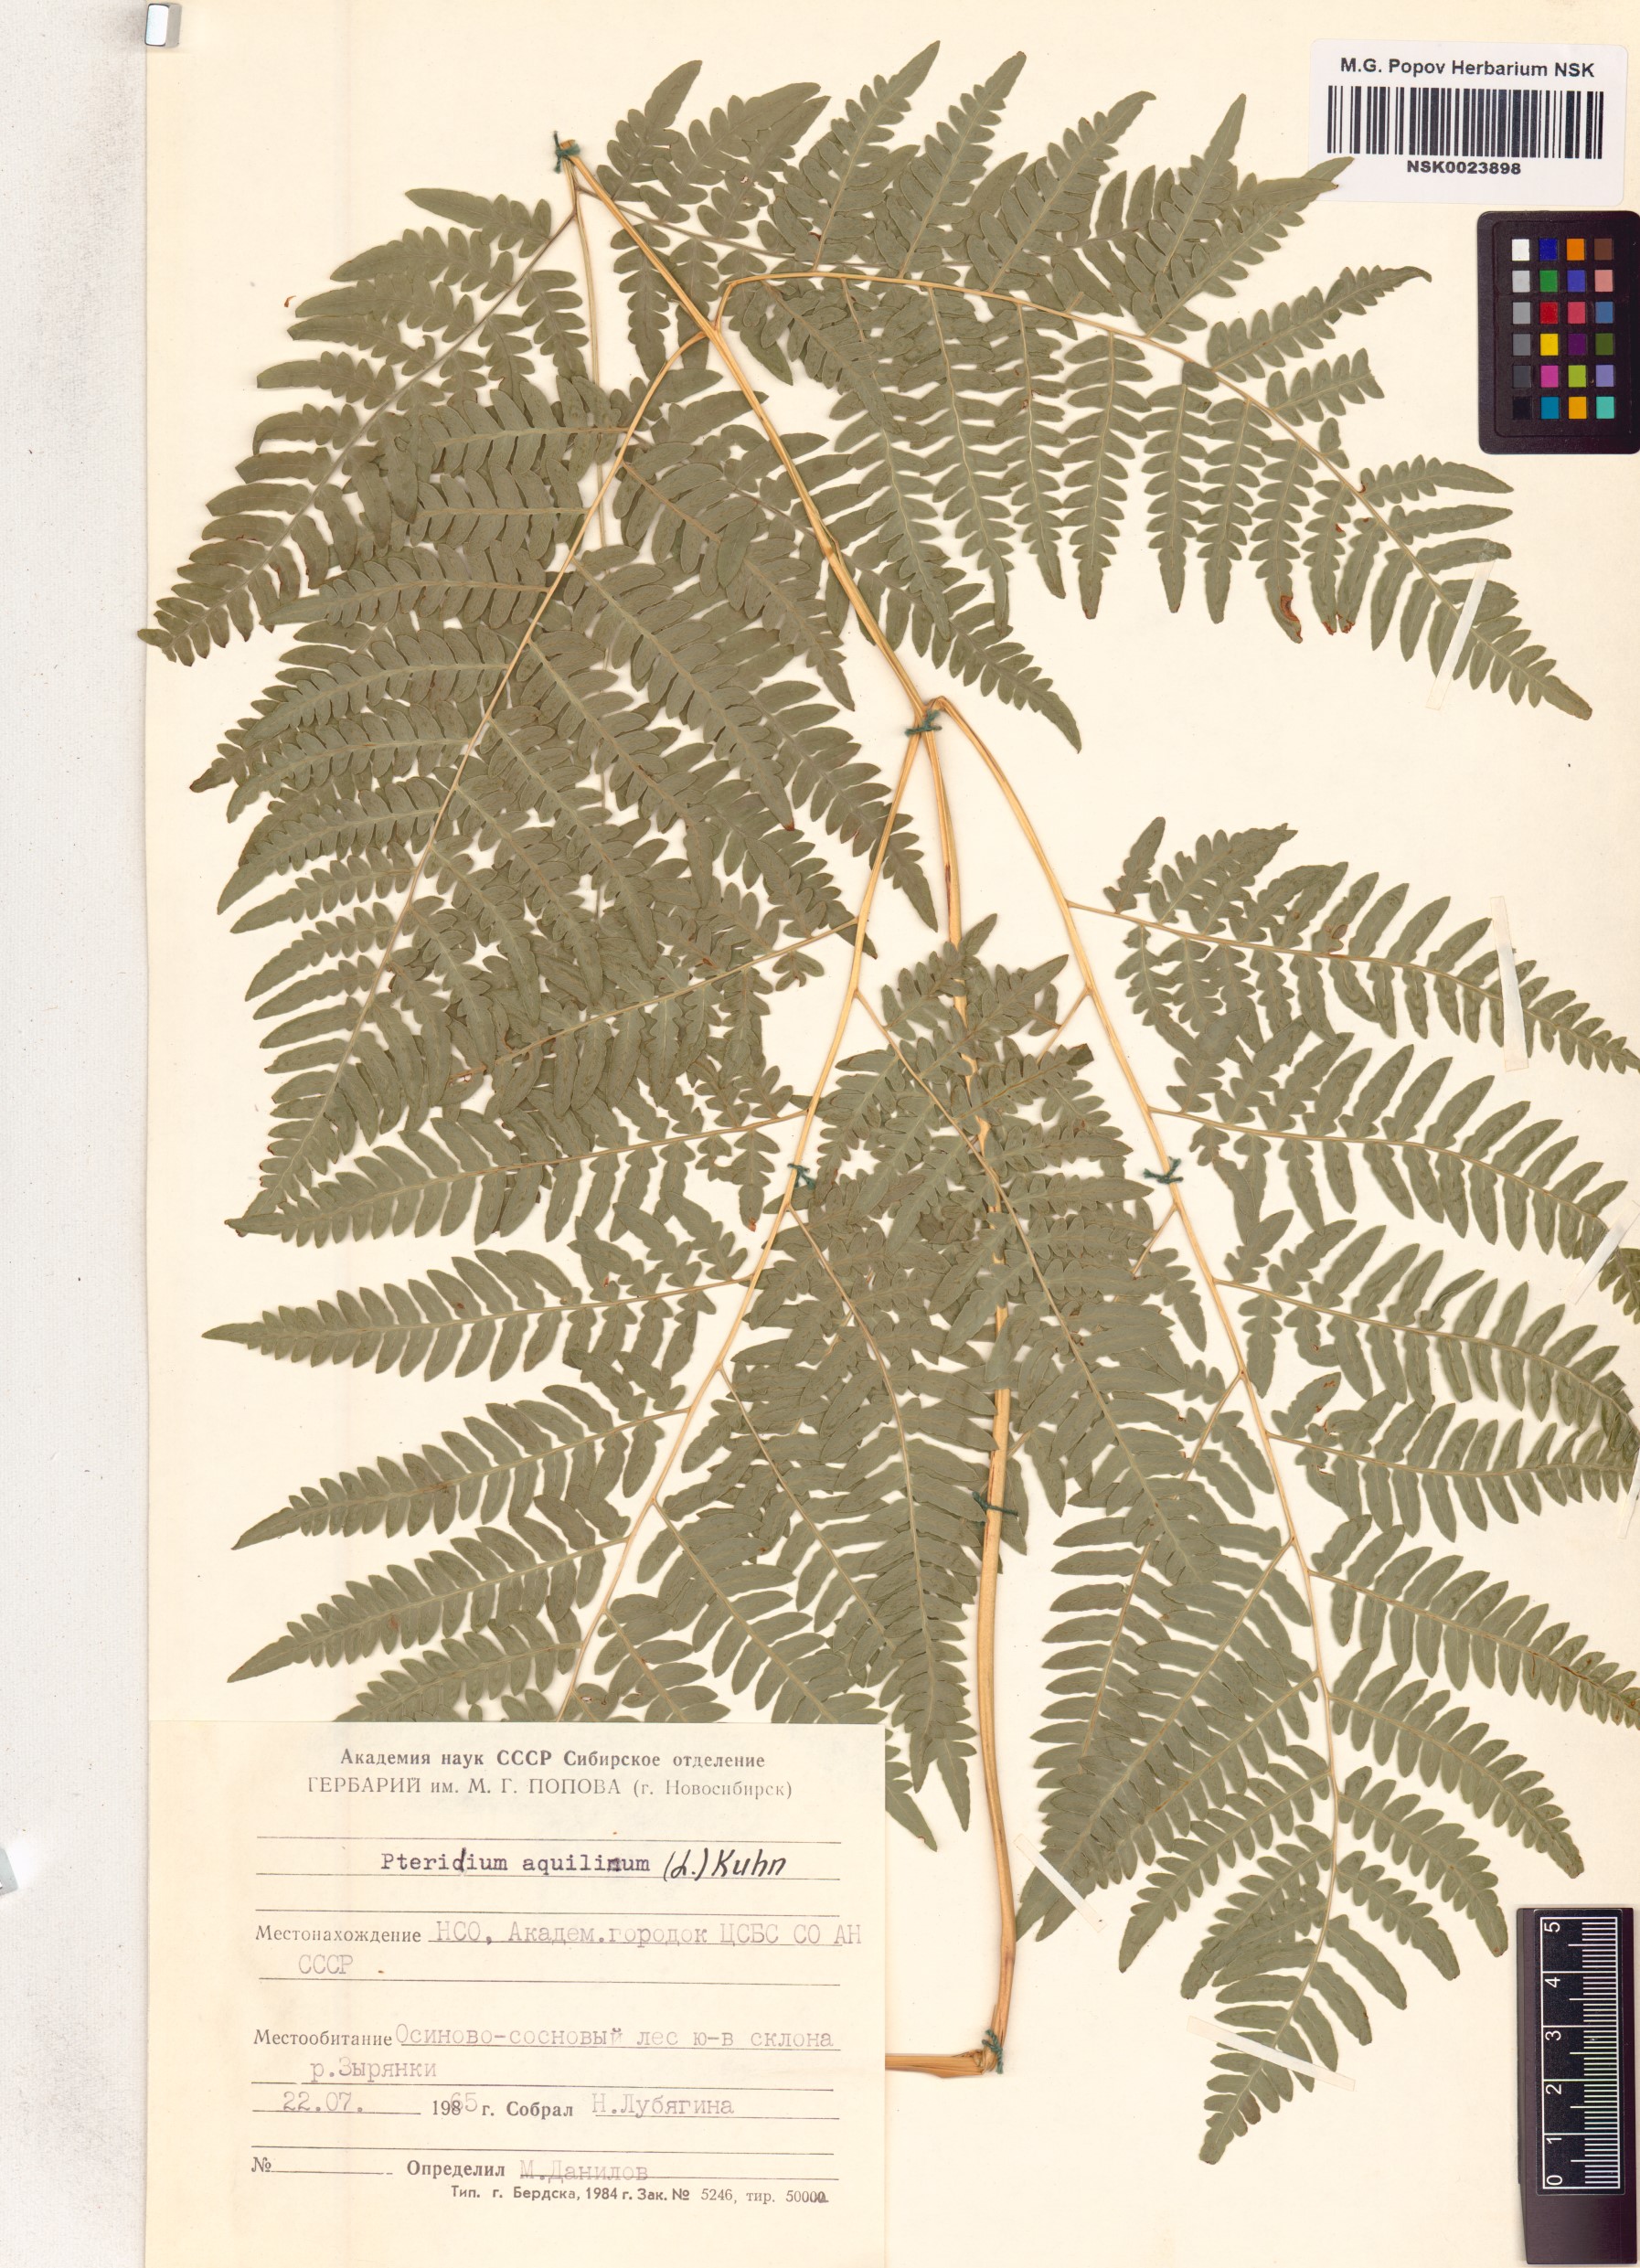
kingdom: Plantae
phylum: Tracheophyta
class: Polypodiopsida
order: Polypodiales
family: Dennstaedtiaceae
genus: Pteridium
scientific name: Pteridium aquilinum
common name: Bracken
